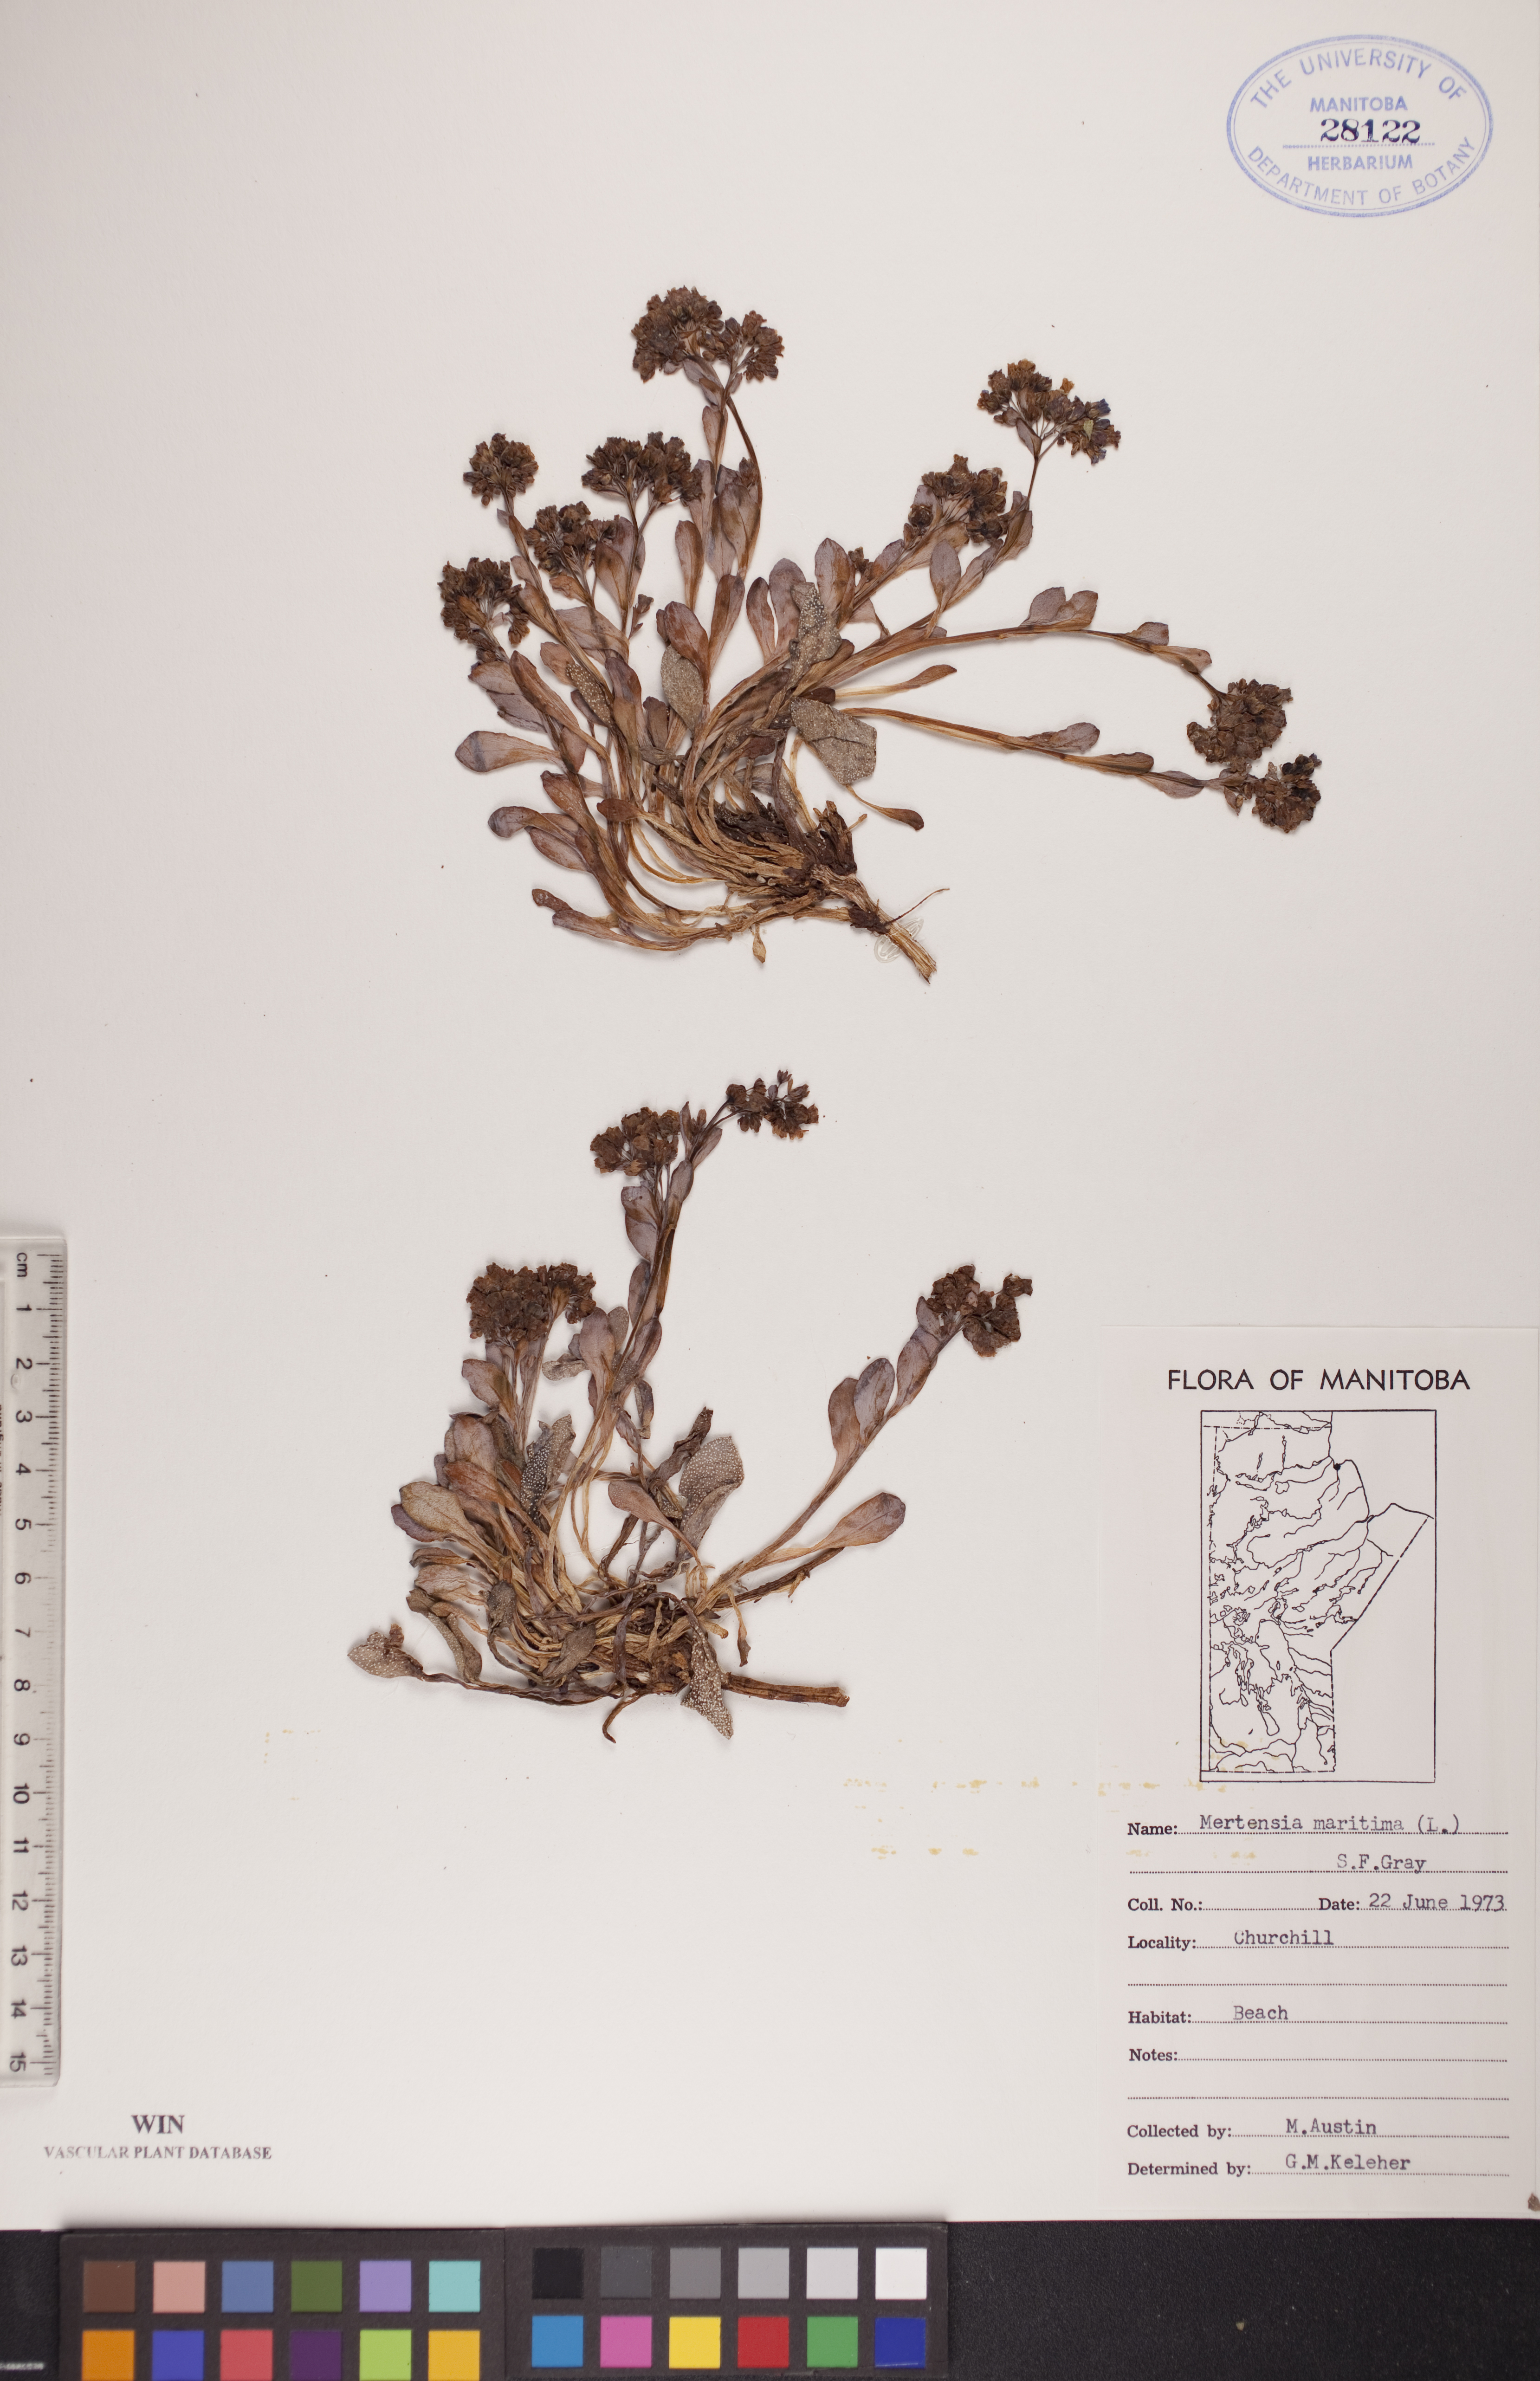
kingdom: Plantae
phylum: Tracheophyta
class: Magnoliopsida
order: Boraginales
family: Boraginaceae
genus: Mertensia
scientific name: Mertensia maritima
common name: Oysterplant
